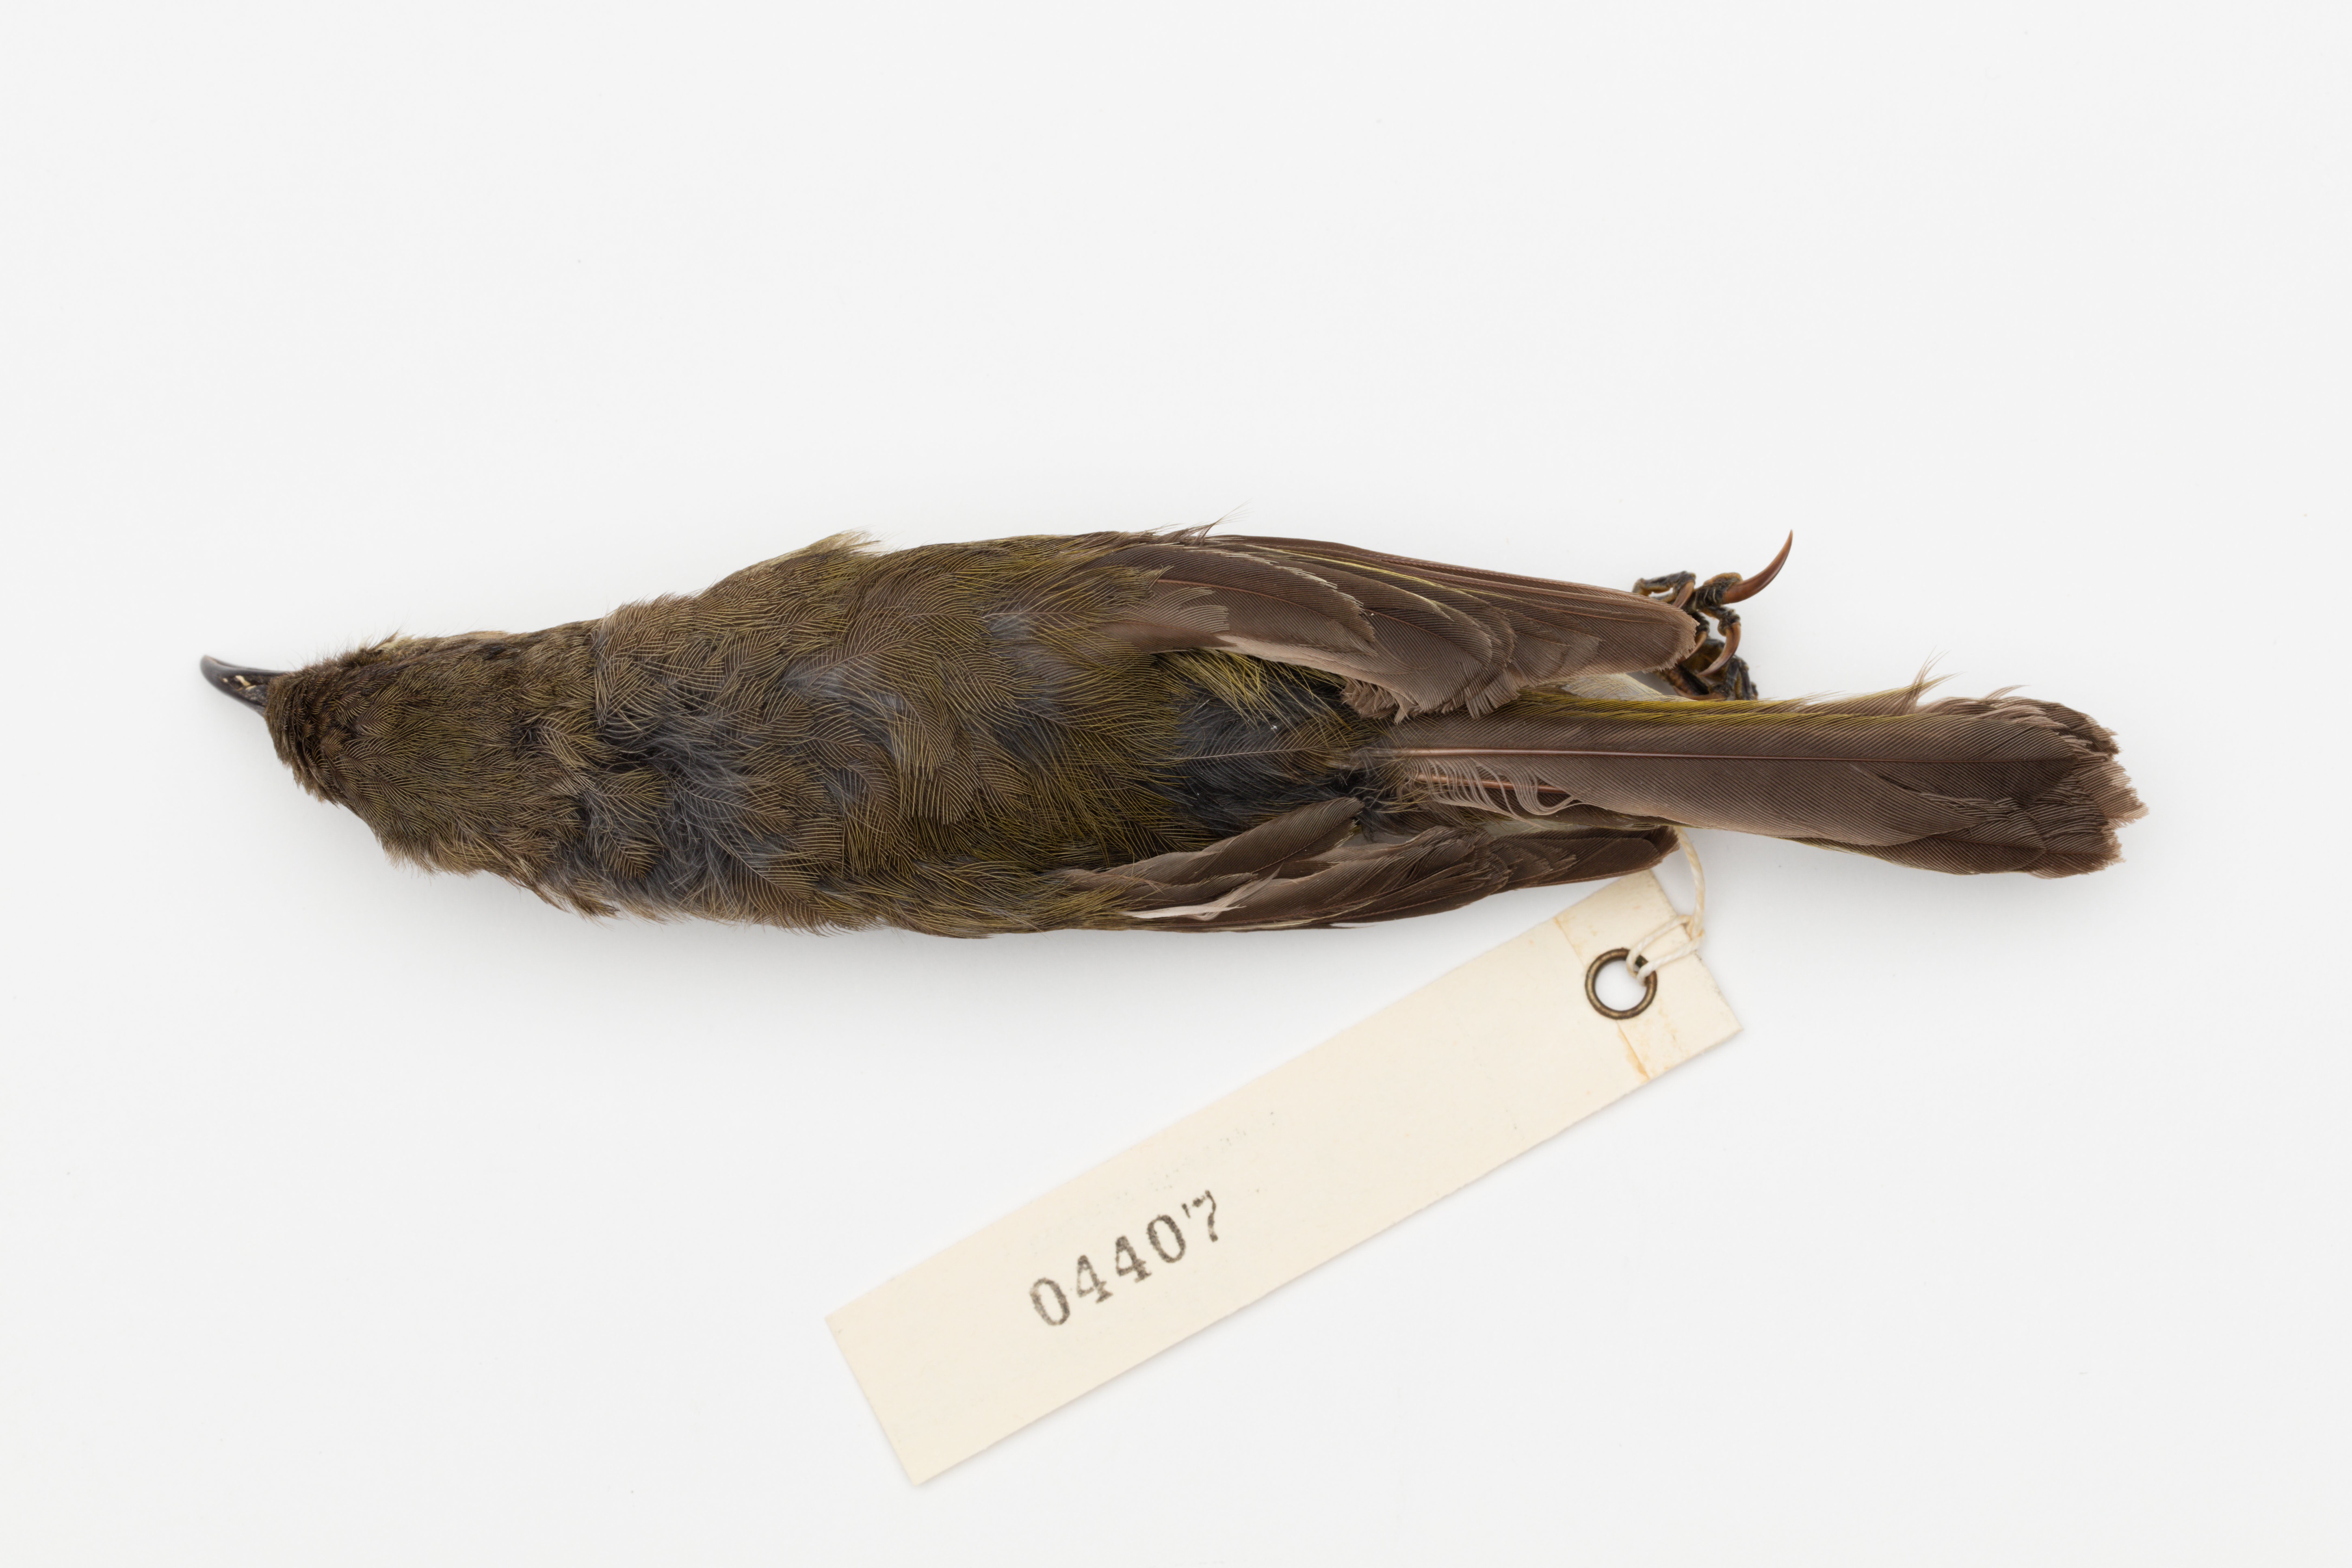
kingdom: Animalia
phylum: Chordata
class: Aves
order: Passeriformes
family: Meliphagidae
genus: Anthornis
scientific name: Anthornis melanura
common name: New zealand bellbird
